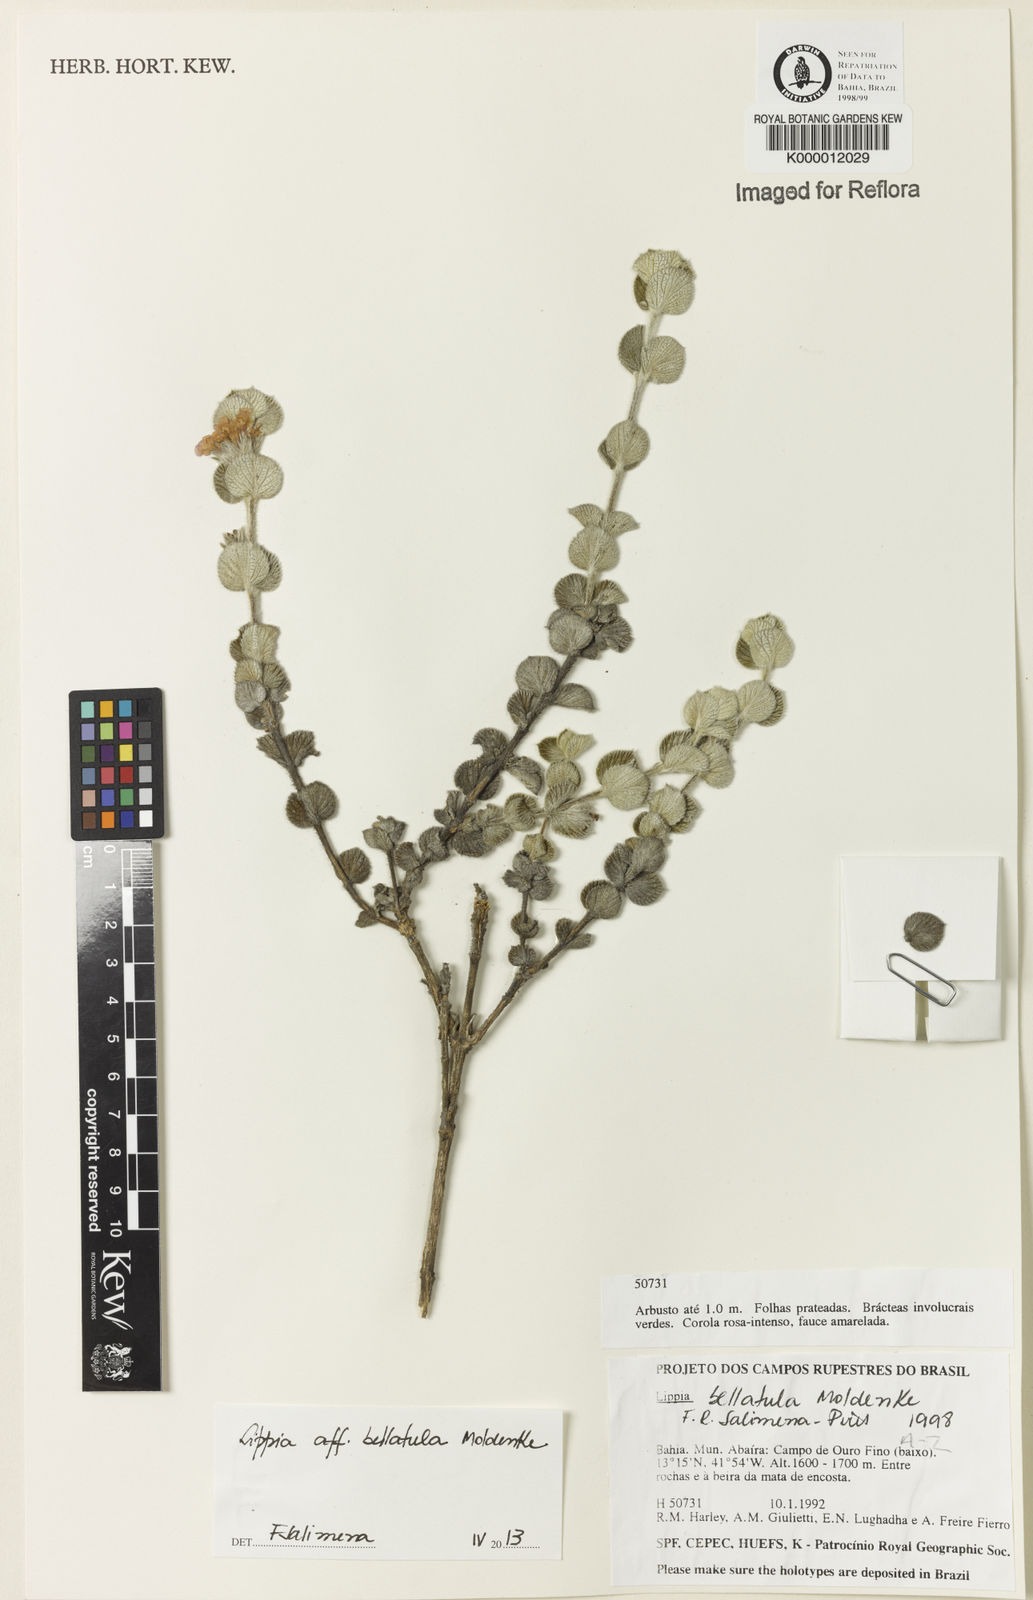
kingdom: Plantae
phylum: Tracheophyta
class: Magnoliopsida
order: Lamiales
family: Verbenaceae
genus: Lippia
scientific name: Lippia bellatula
